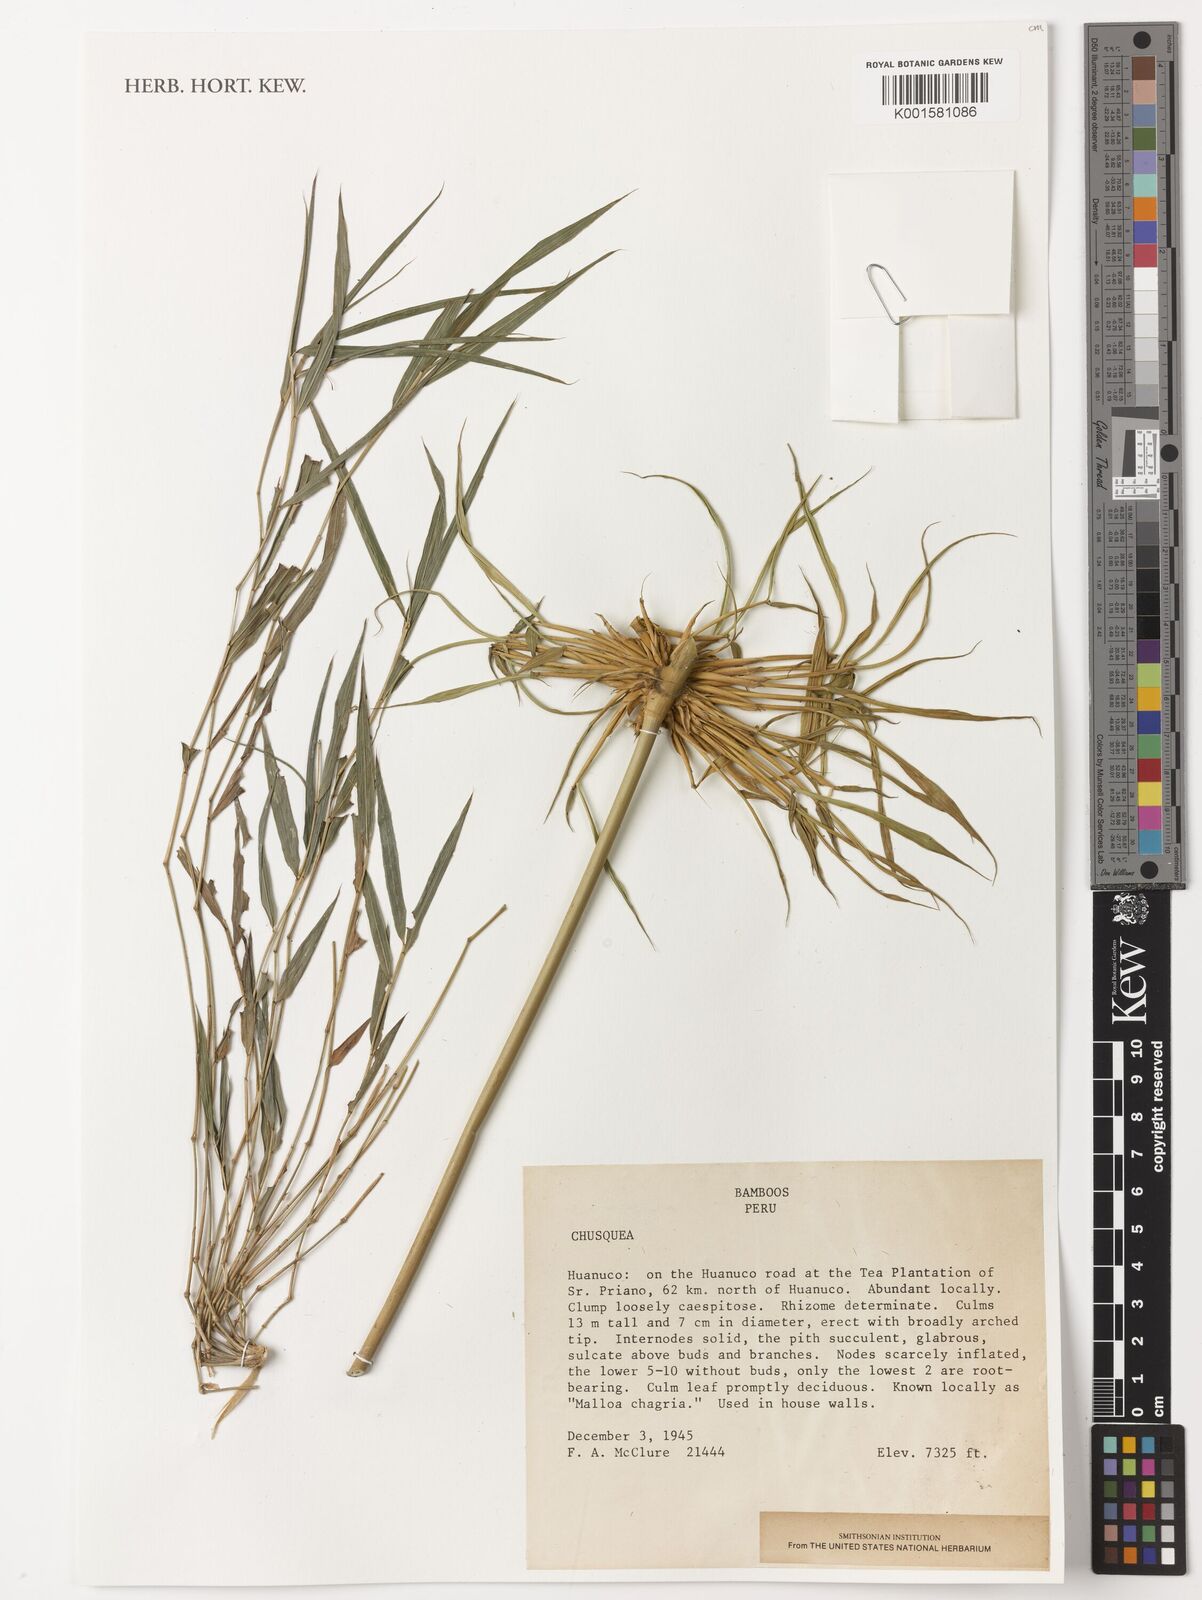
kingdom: Plantae
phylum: Tracheophyta
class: Liliopsida
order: Poales
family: Poaceae
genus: Chusquea
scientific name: Chusquea
